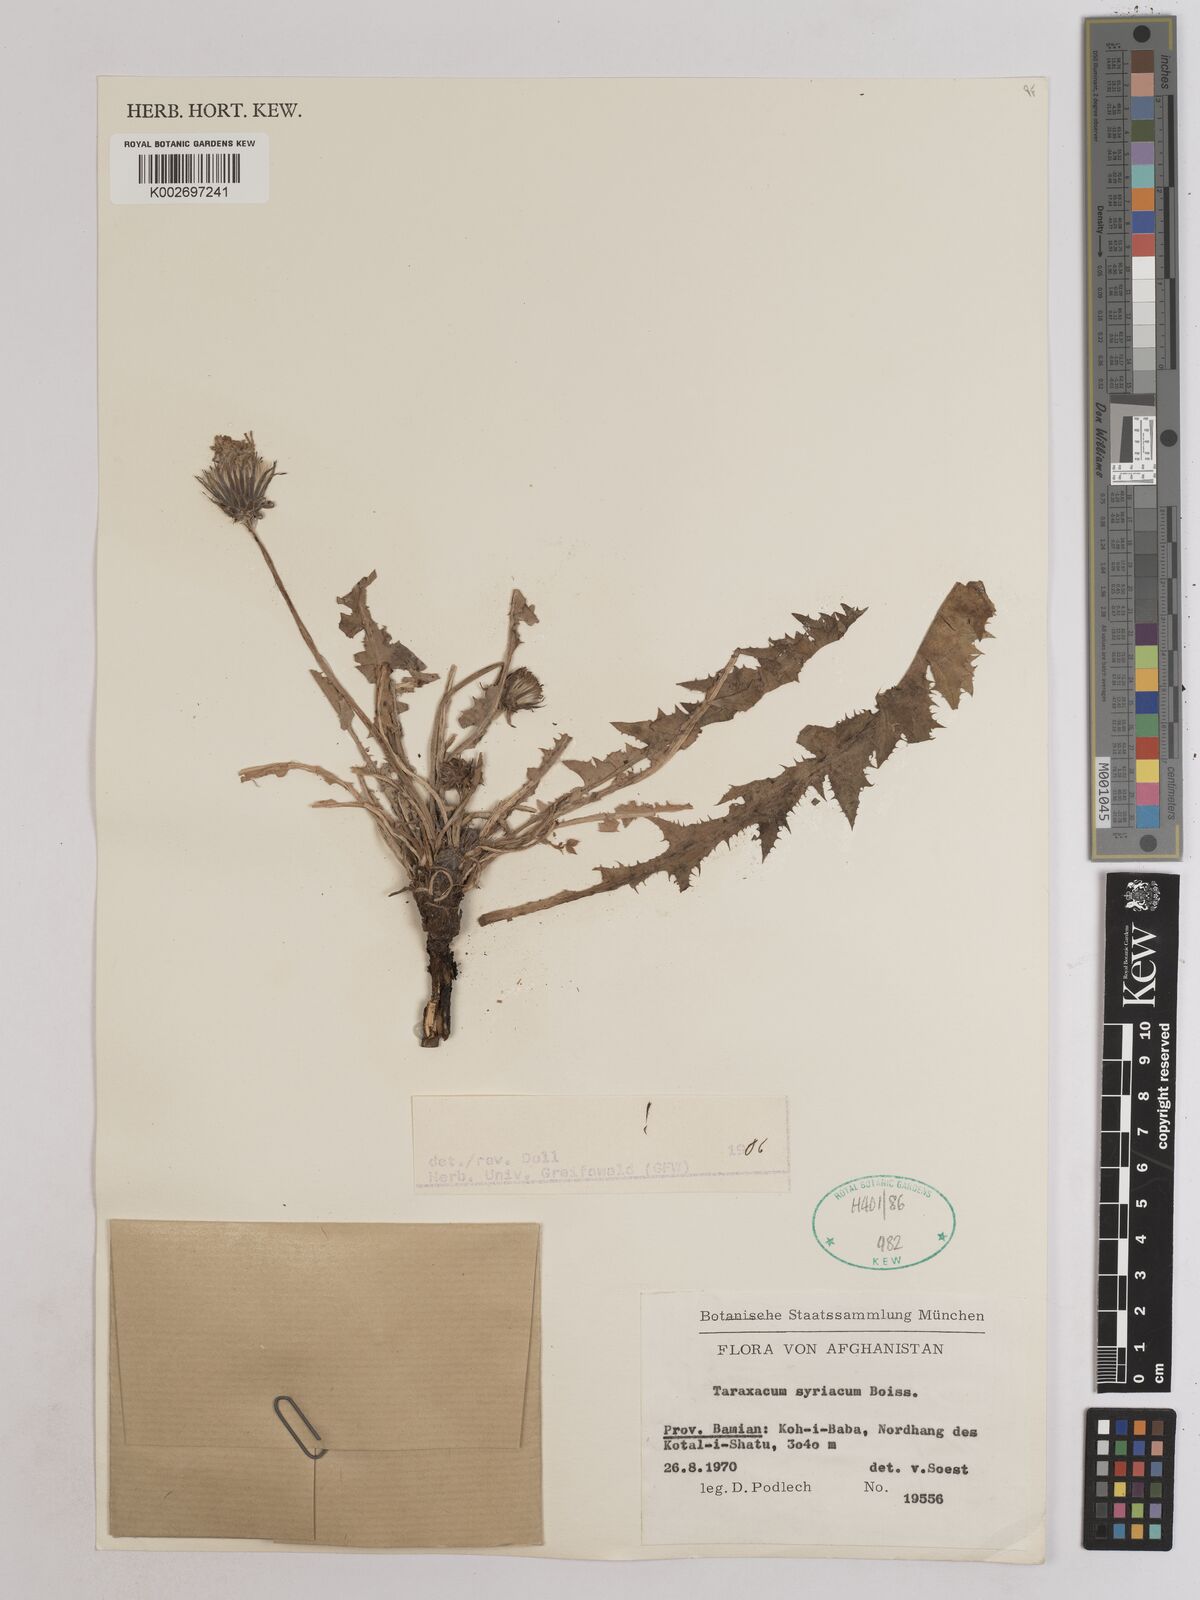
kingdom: Plantae
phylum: Tracheophyta
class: Magnoliopsida
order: Asterales
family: Asteraceae
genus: Taraxacum
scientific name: Taraxacum syriacum
